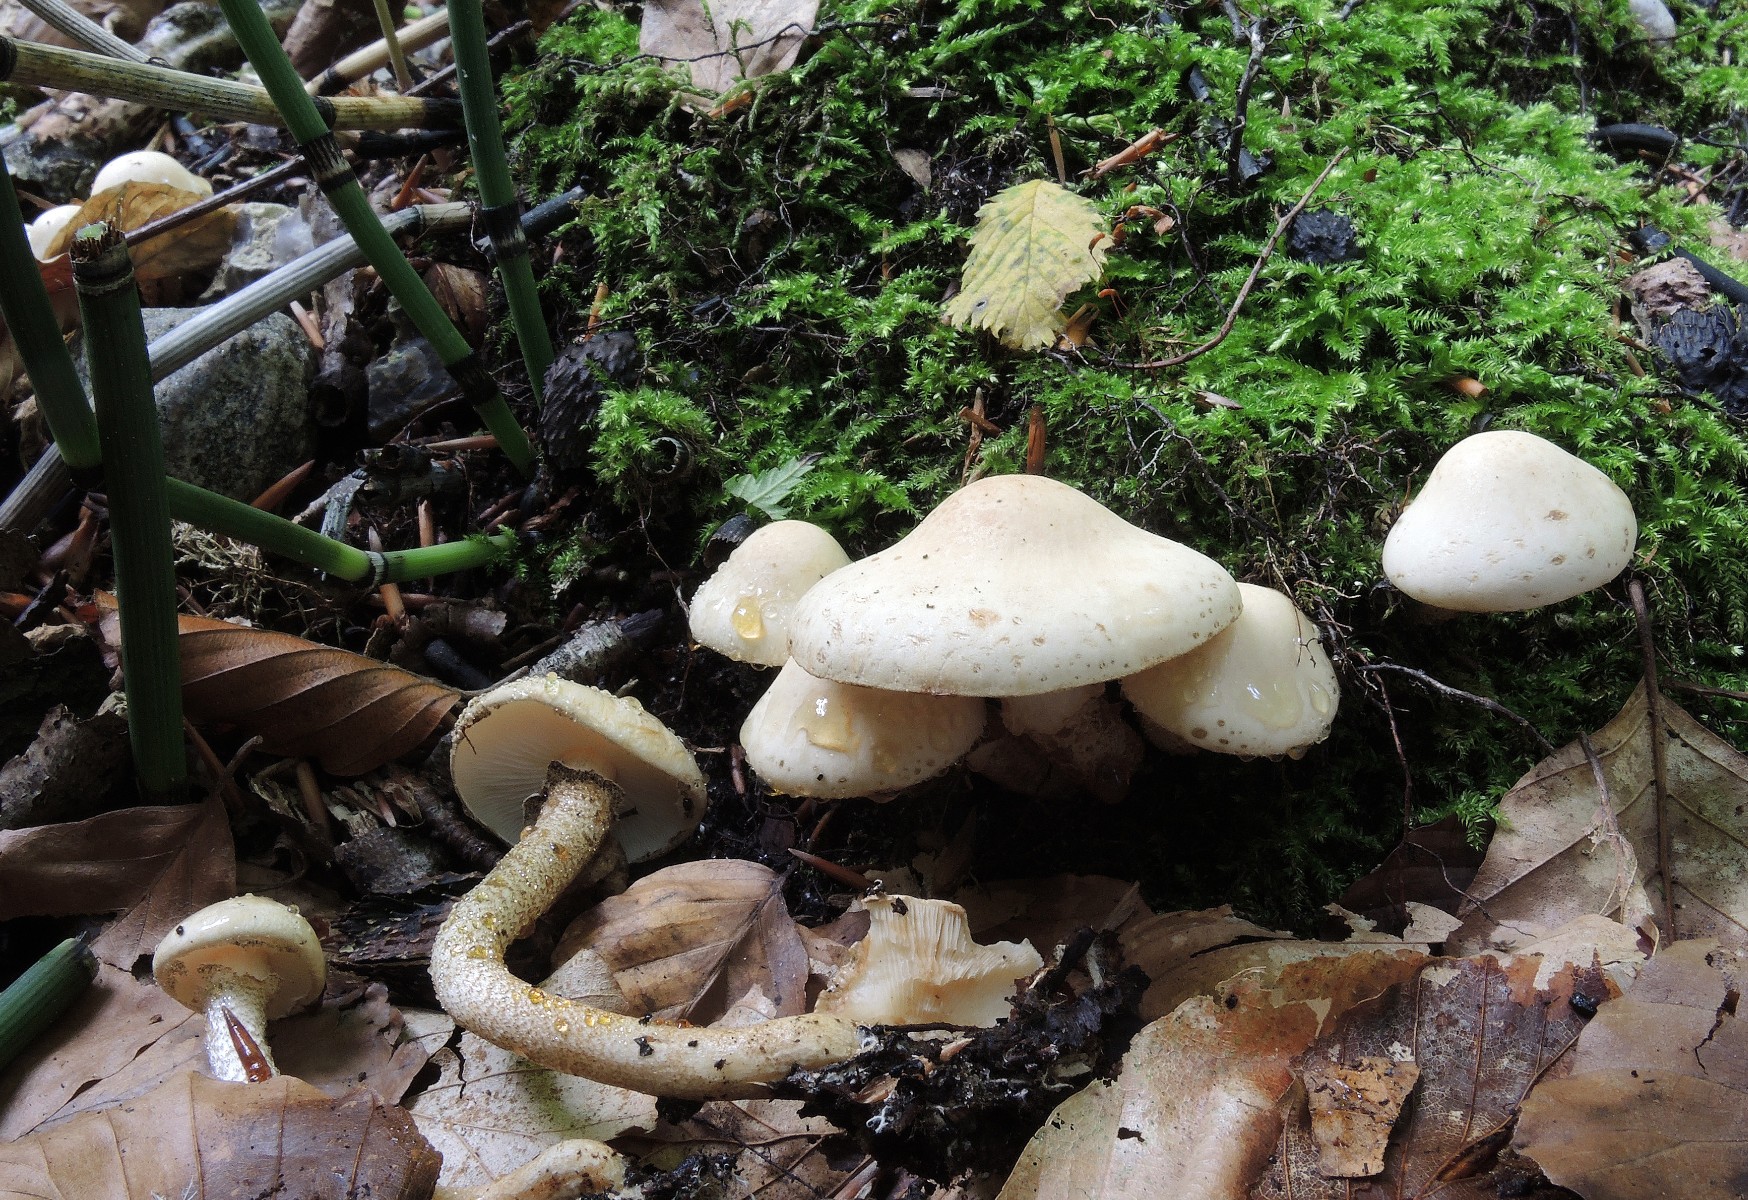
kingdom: Fungi
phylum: Basidiomycota
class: Agaricomycetes
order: Agaricales
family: Agaricaceae
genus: Chamaemyces
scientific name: Chamaemyces fracidus
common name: dråbehat
